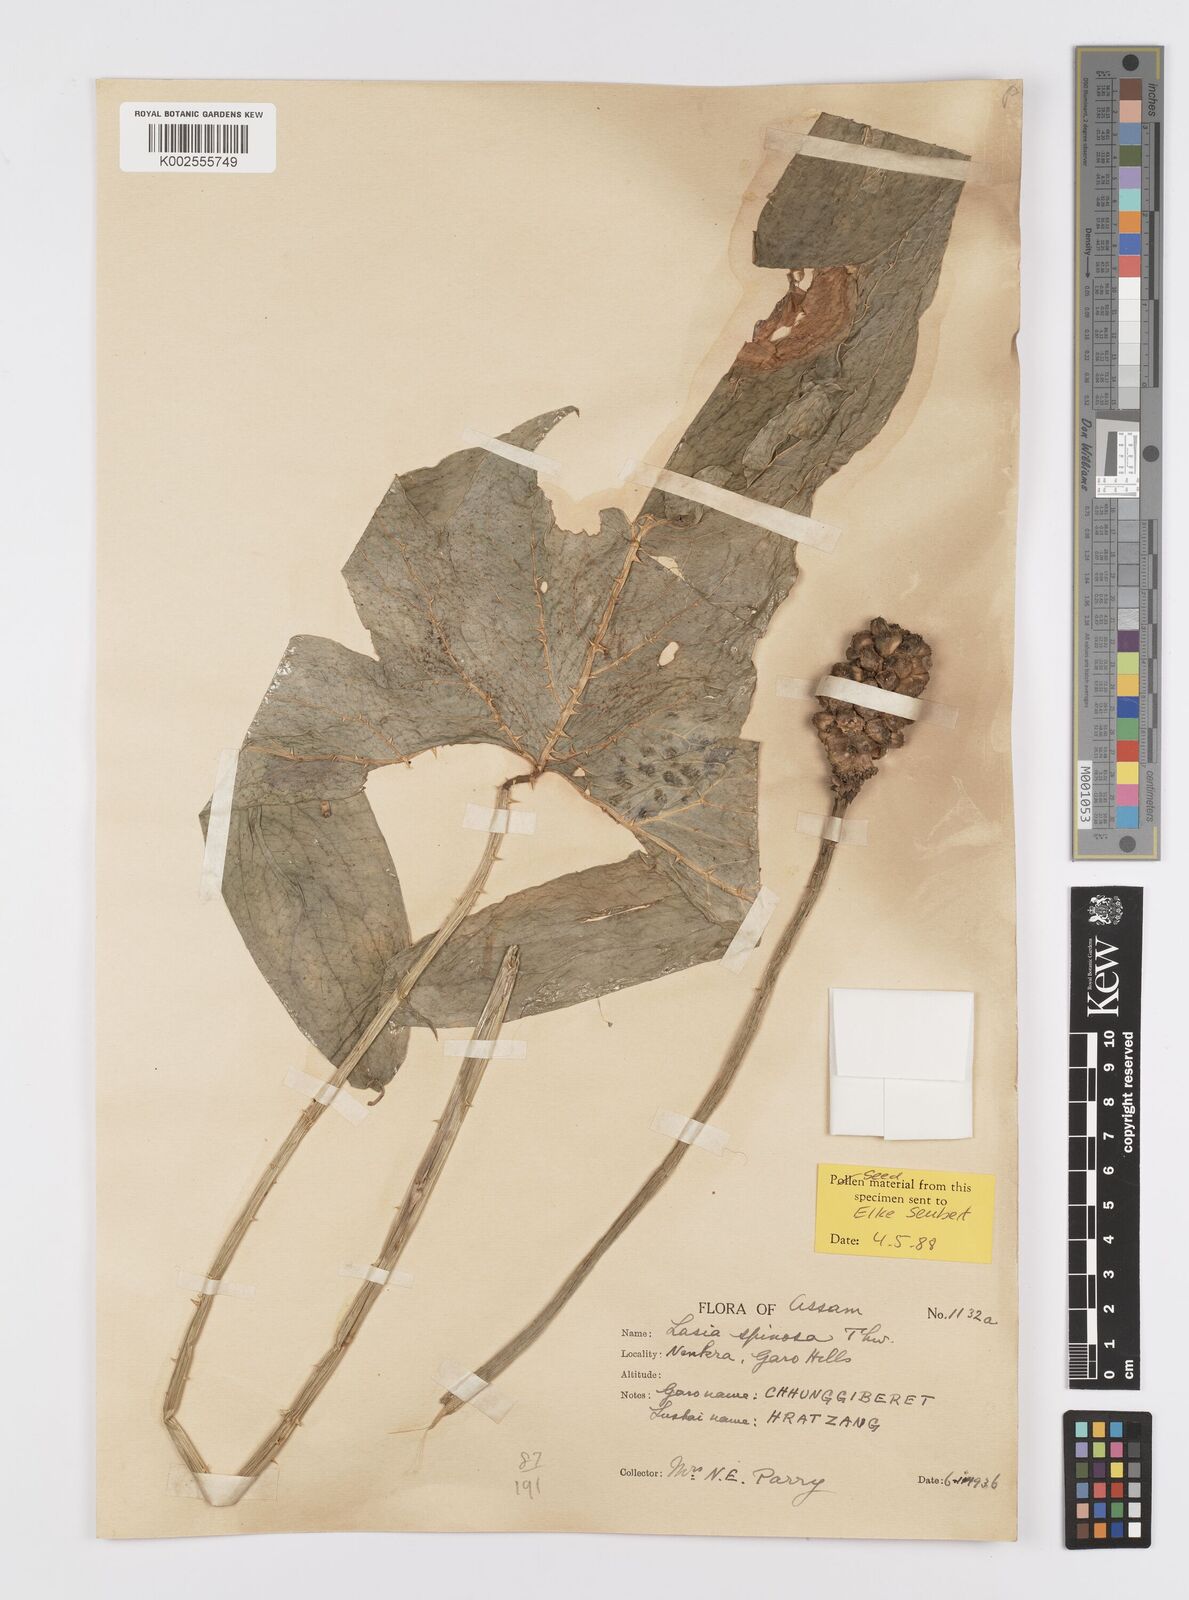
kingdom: Plantae
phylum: Tracheophyta
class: Liliopsida
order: Alismatales
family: Araceae
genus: Lasia
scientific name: Lasia spinosa
